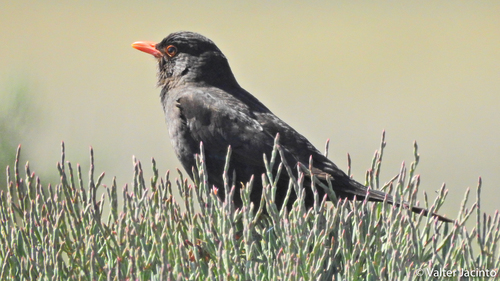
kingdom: Animalia
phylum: Chordata
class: Aves
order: Passeriformes
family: Turdidae
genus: Turdus
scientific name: Turdus merula
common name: Common blackbird
